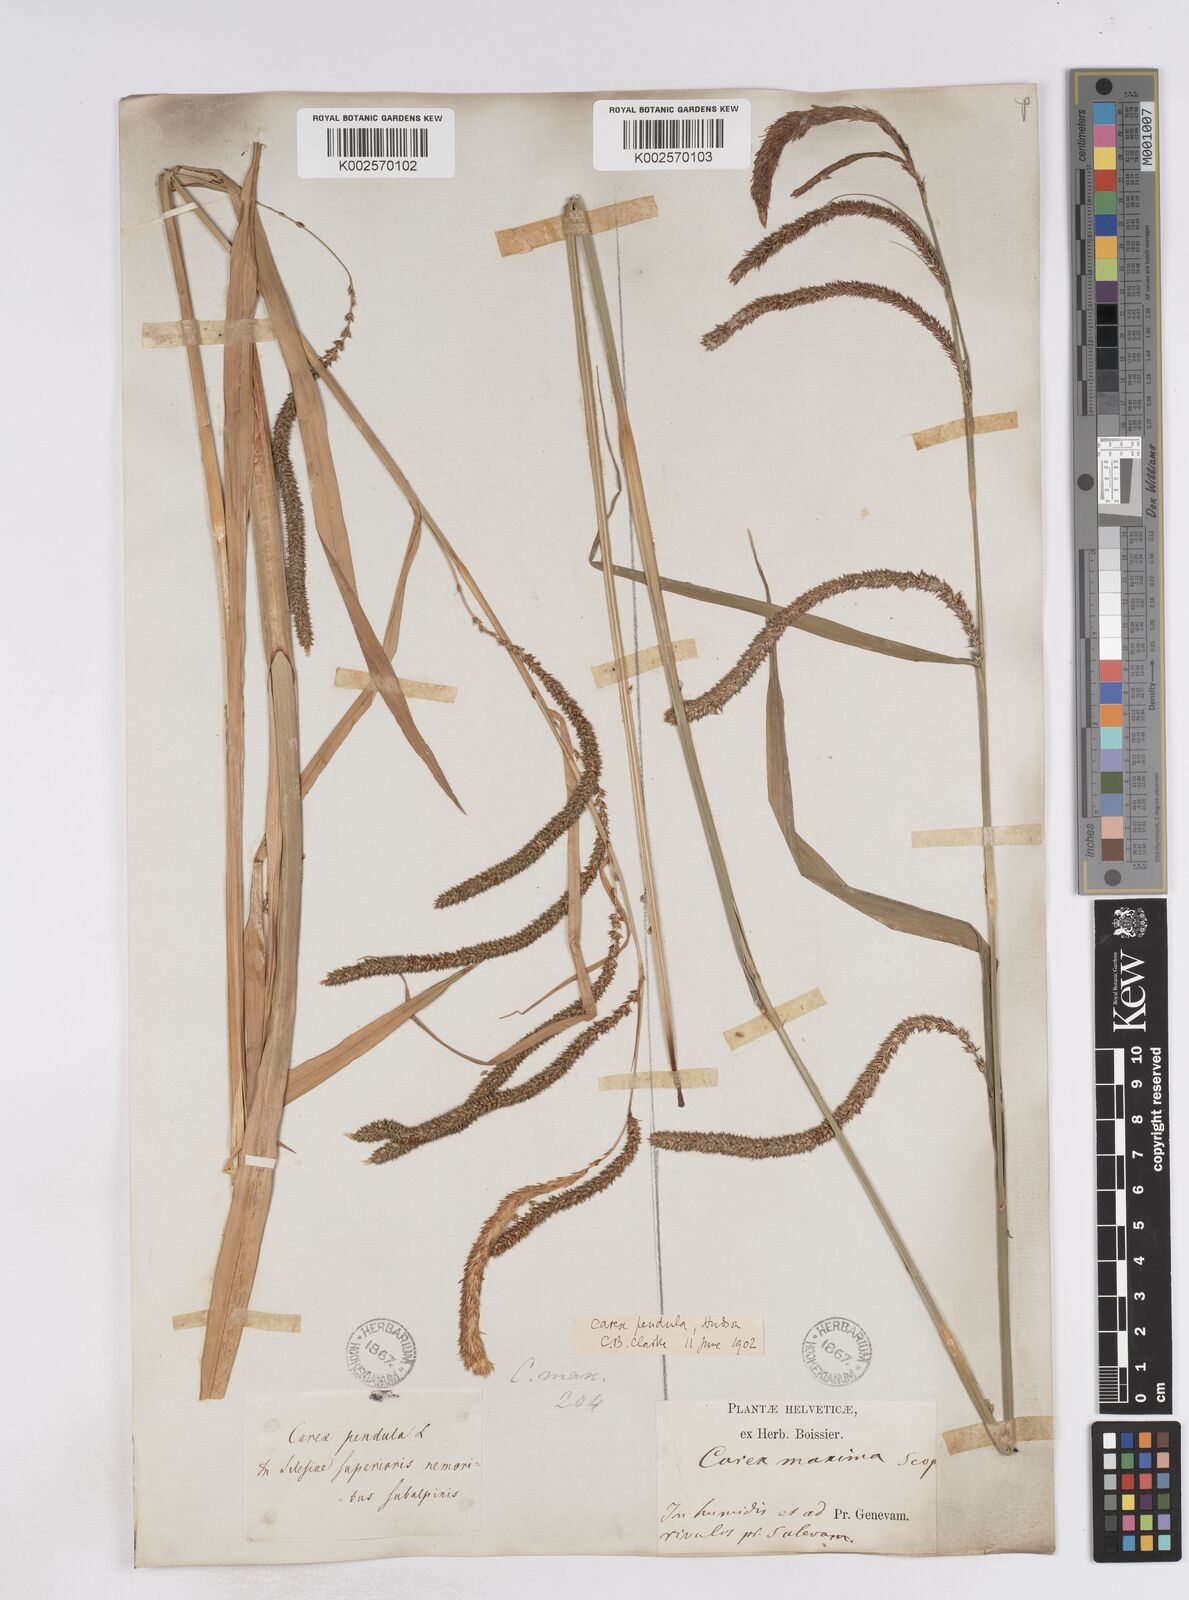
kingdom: Plantae
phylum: Tracheophyta
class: Liliopsida
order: Poales
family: Cyperaceae
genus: Carex
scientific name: Carex pendula
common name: Pendulous sedge
